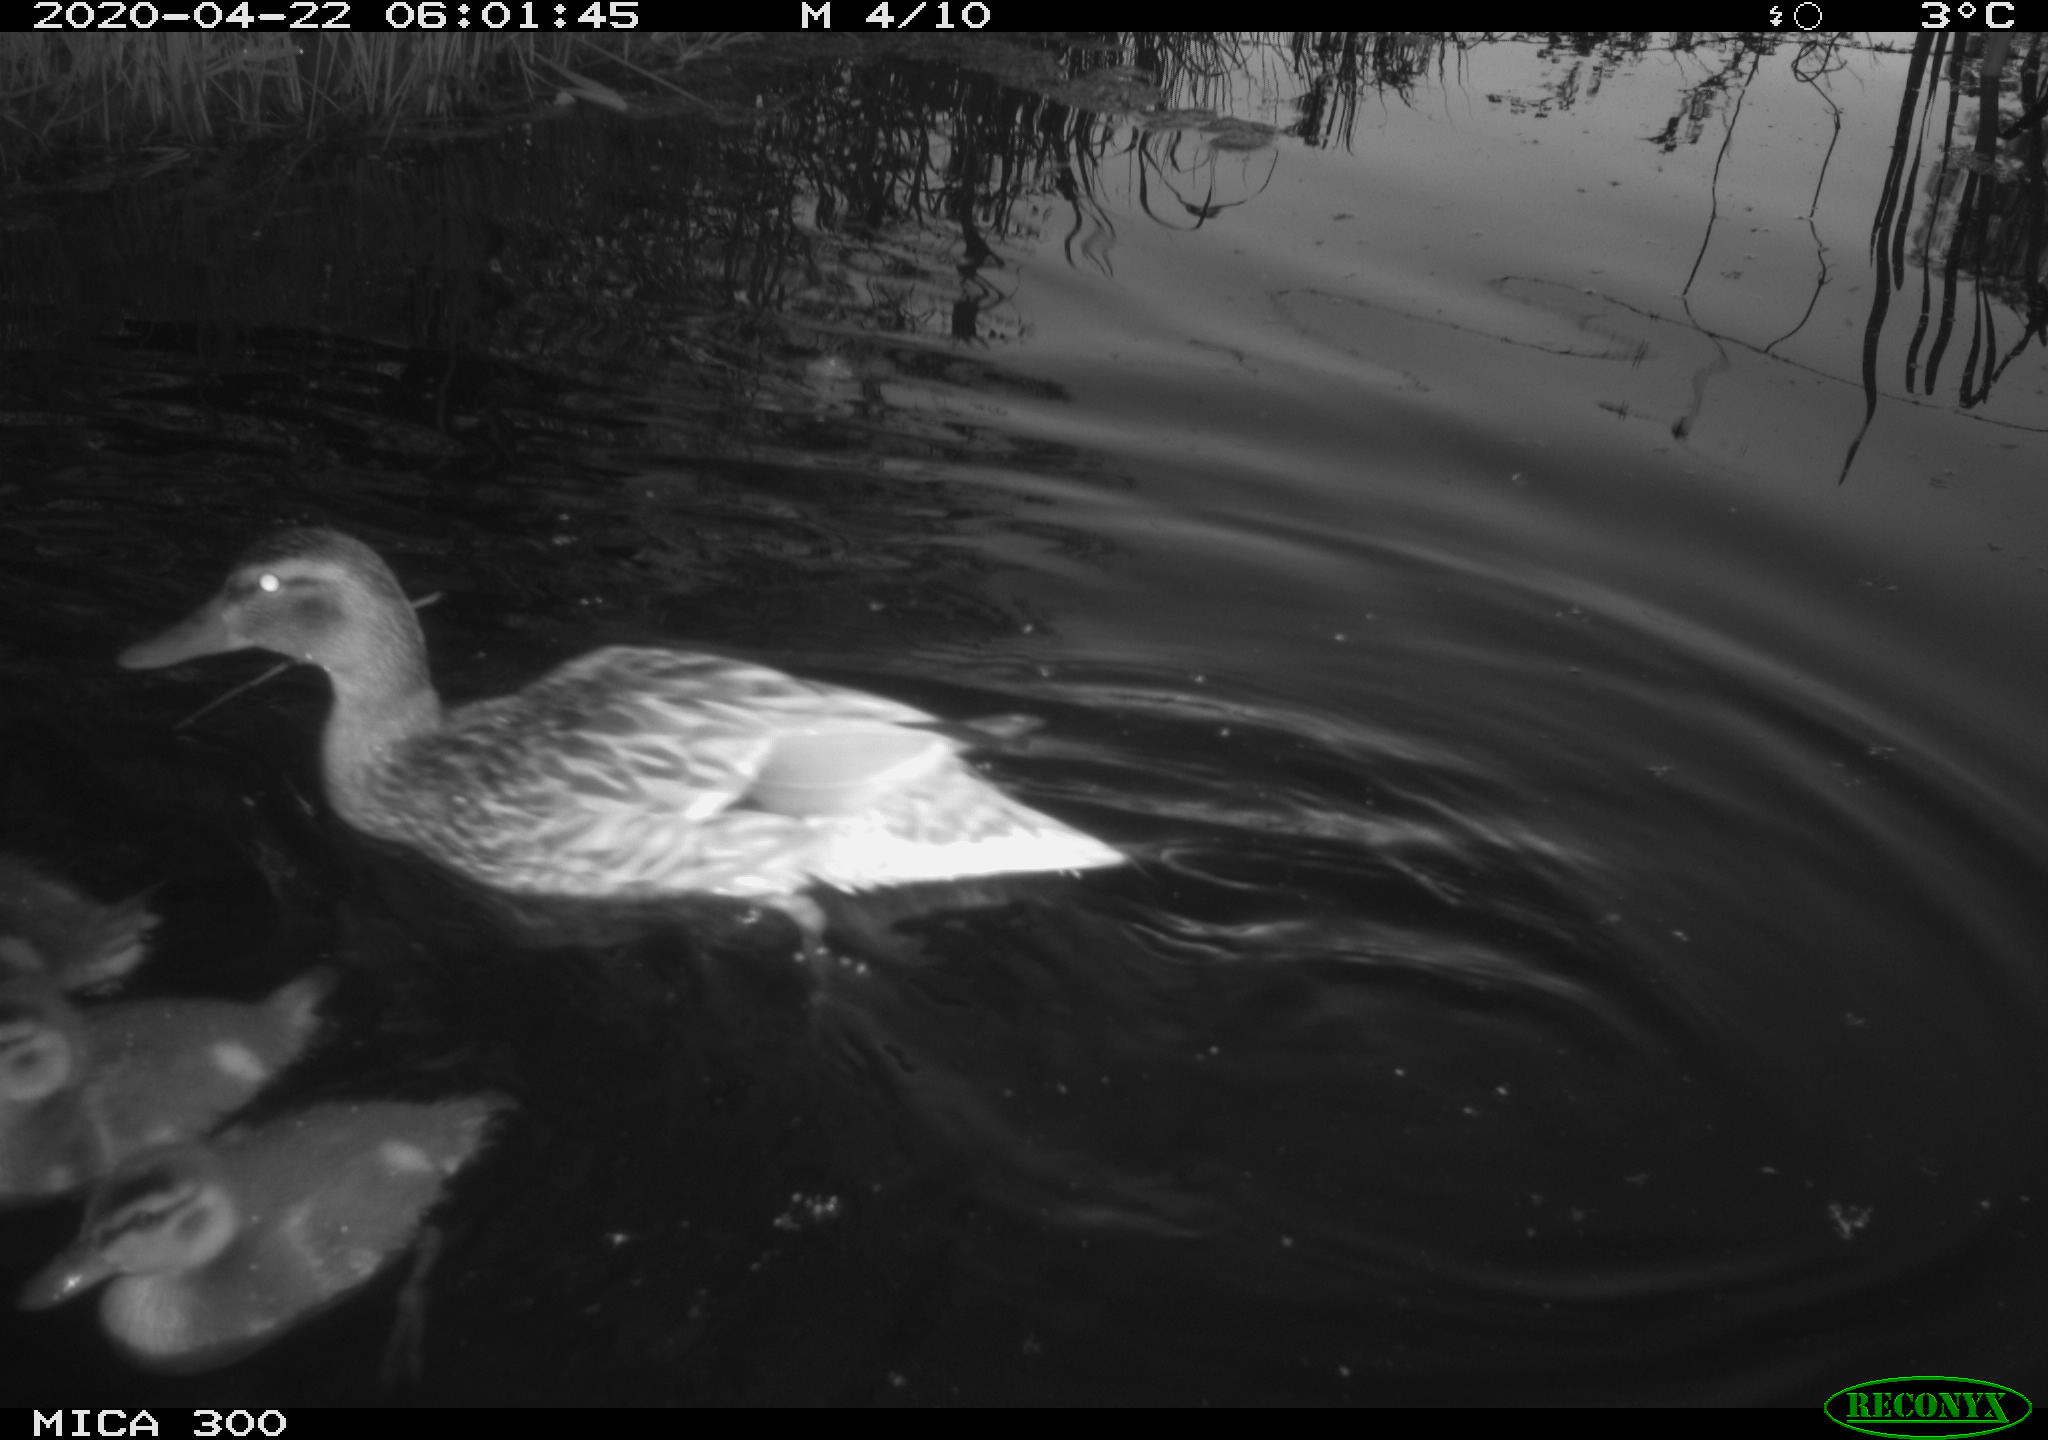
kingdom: Animalia
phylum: Chordata
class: Aves
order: Anseriformes
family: Anatidae
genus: Anas
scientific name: Anas platyrhynchos
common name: Mallard
